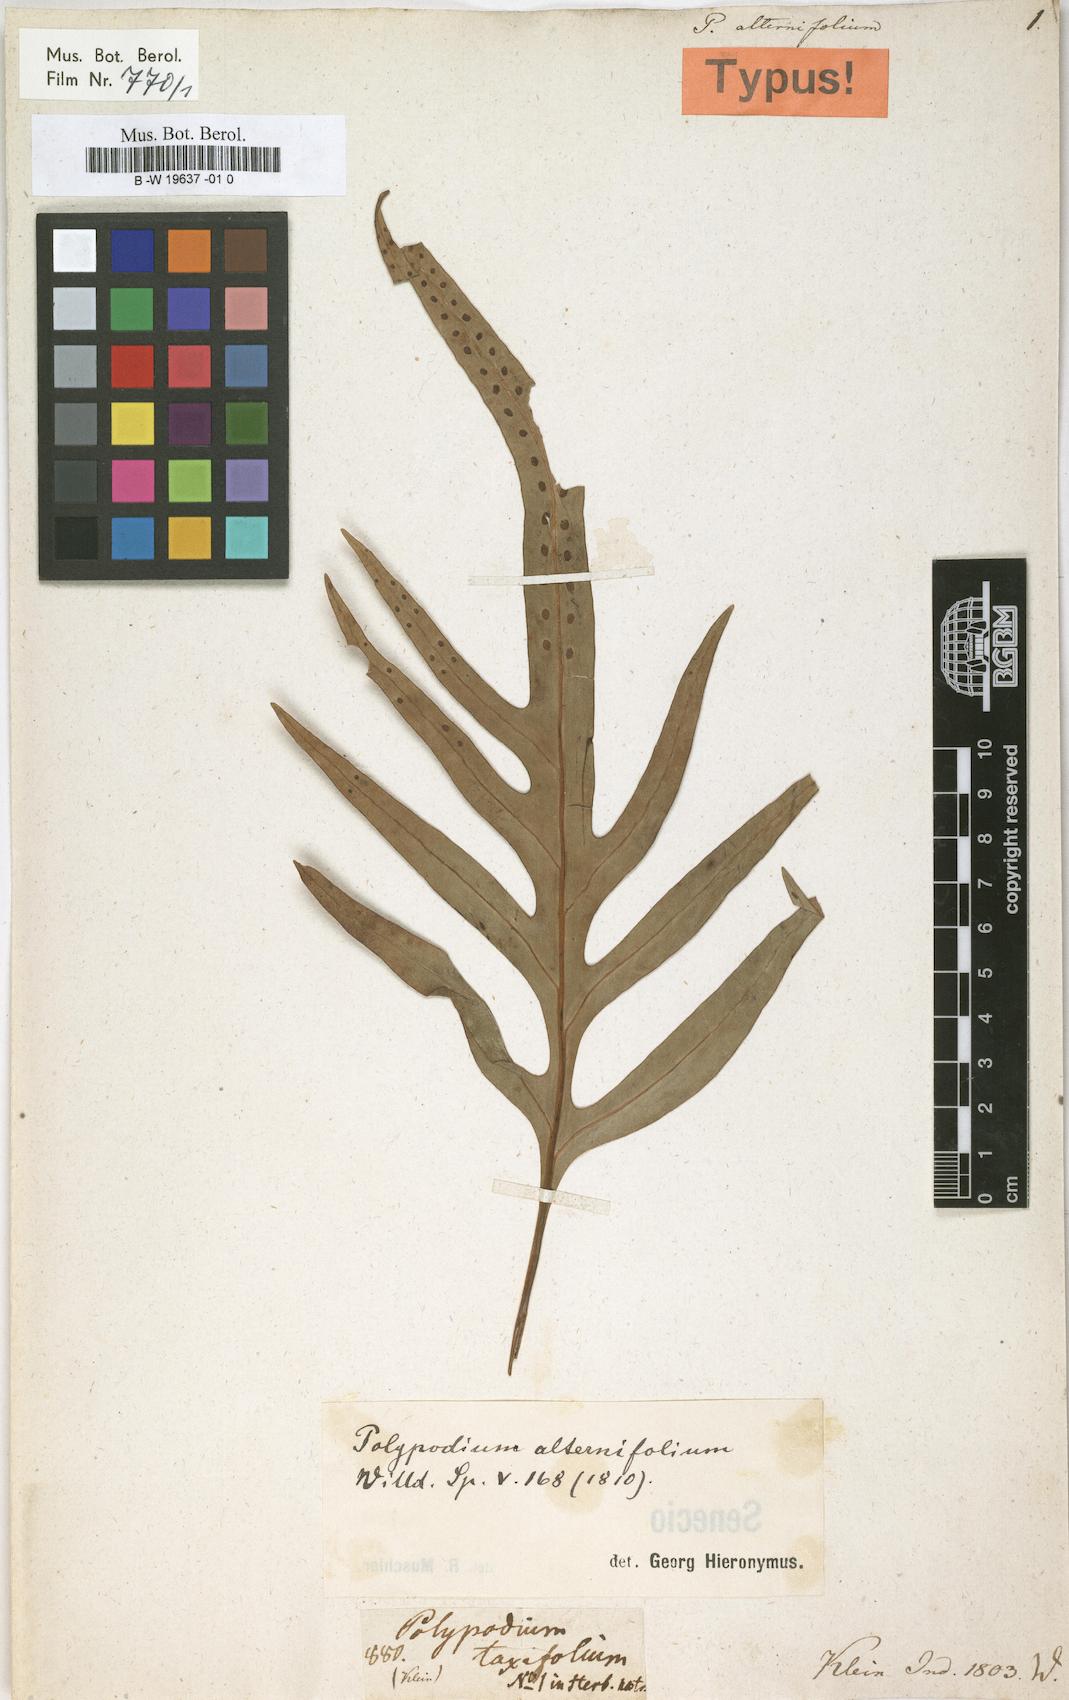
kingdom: Plantae
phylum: Tracheophyta
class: Polypodiopsida
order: Polypodiales
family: Polypodiaceae
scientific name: Polypodiaceae
